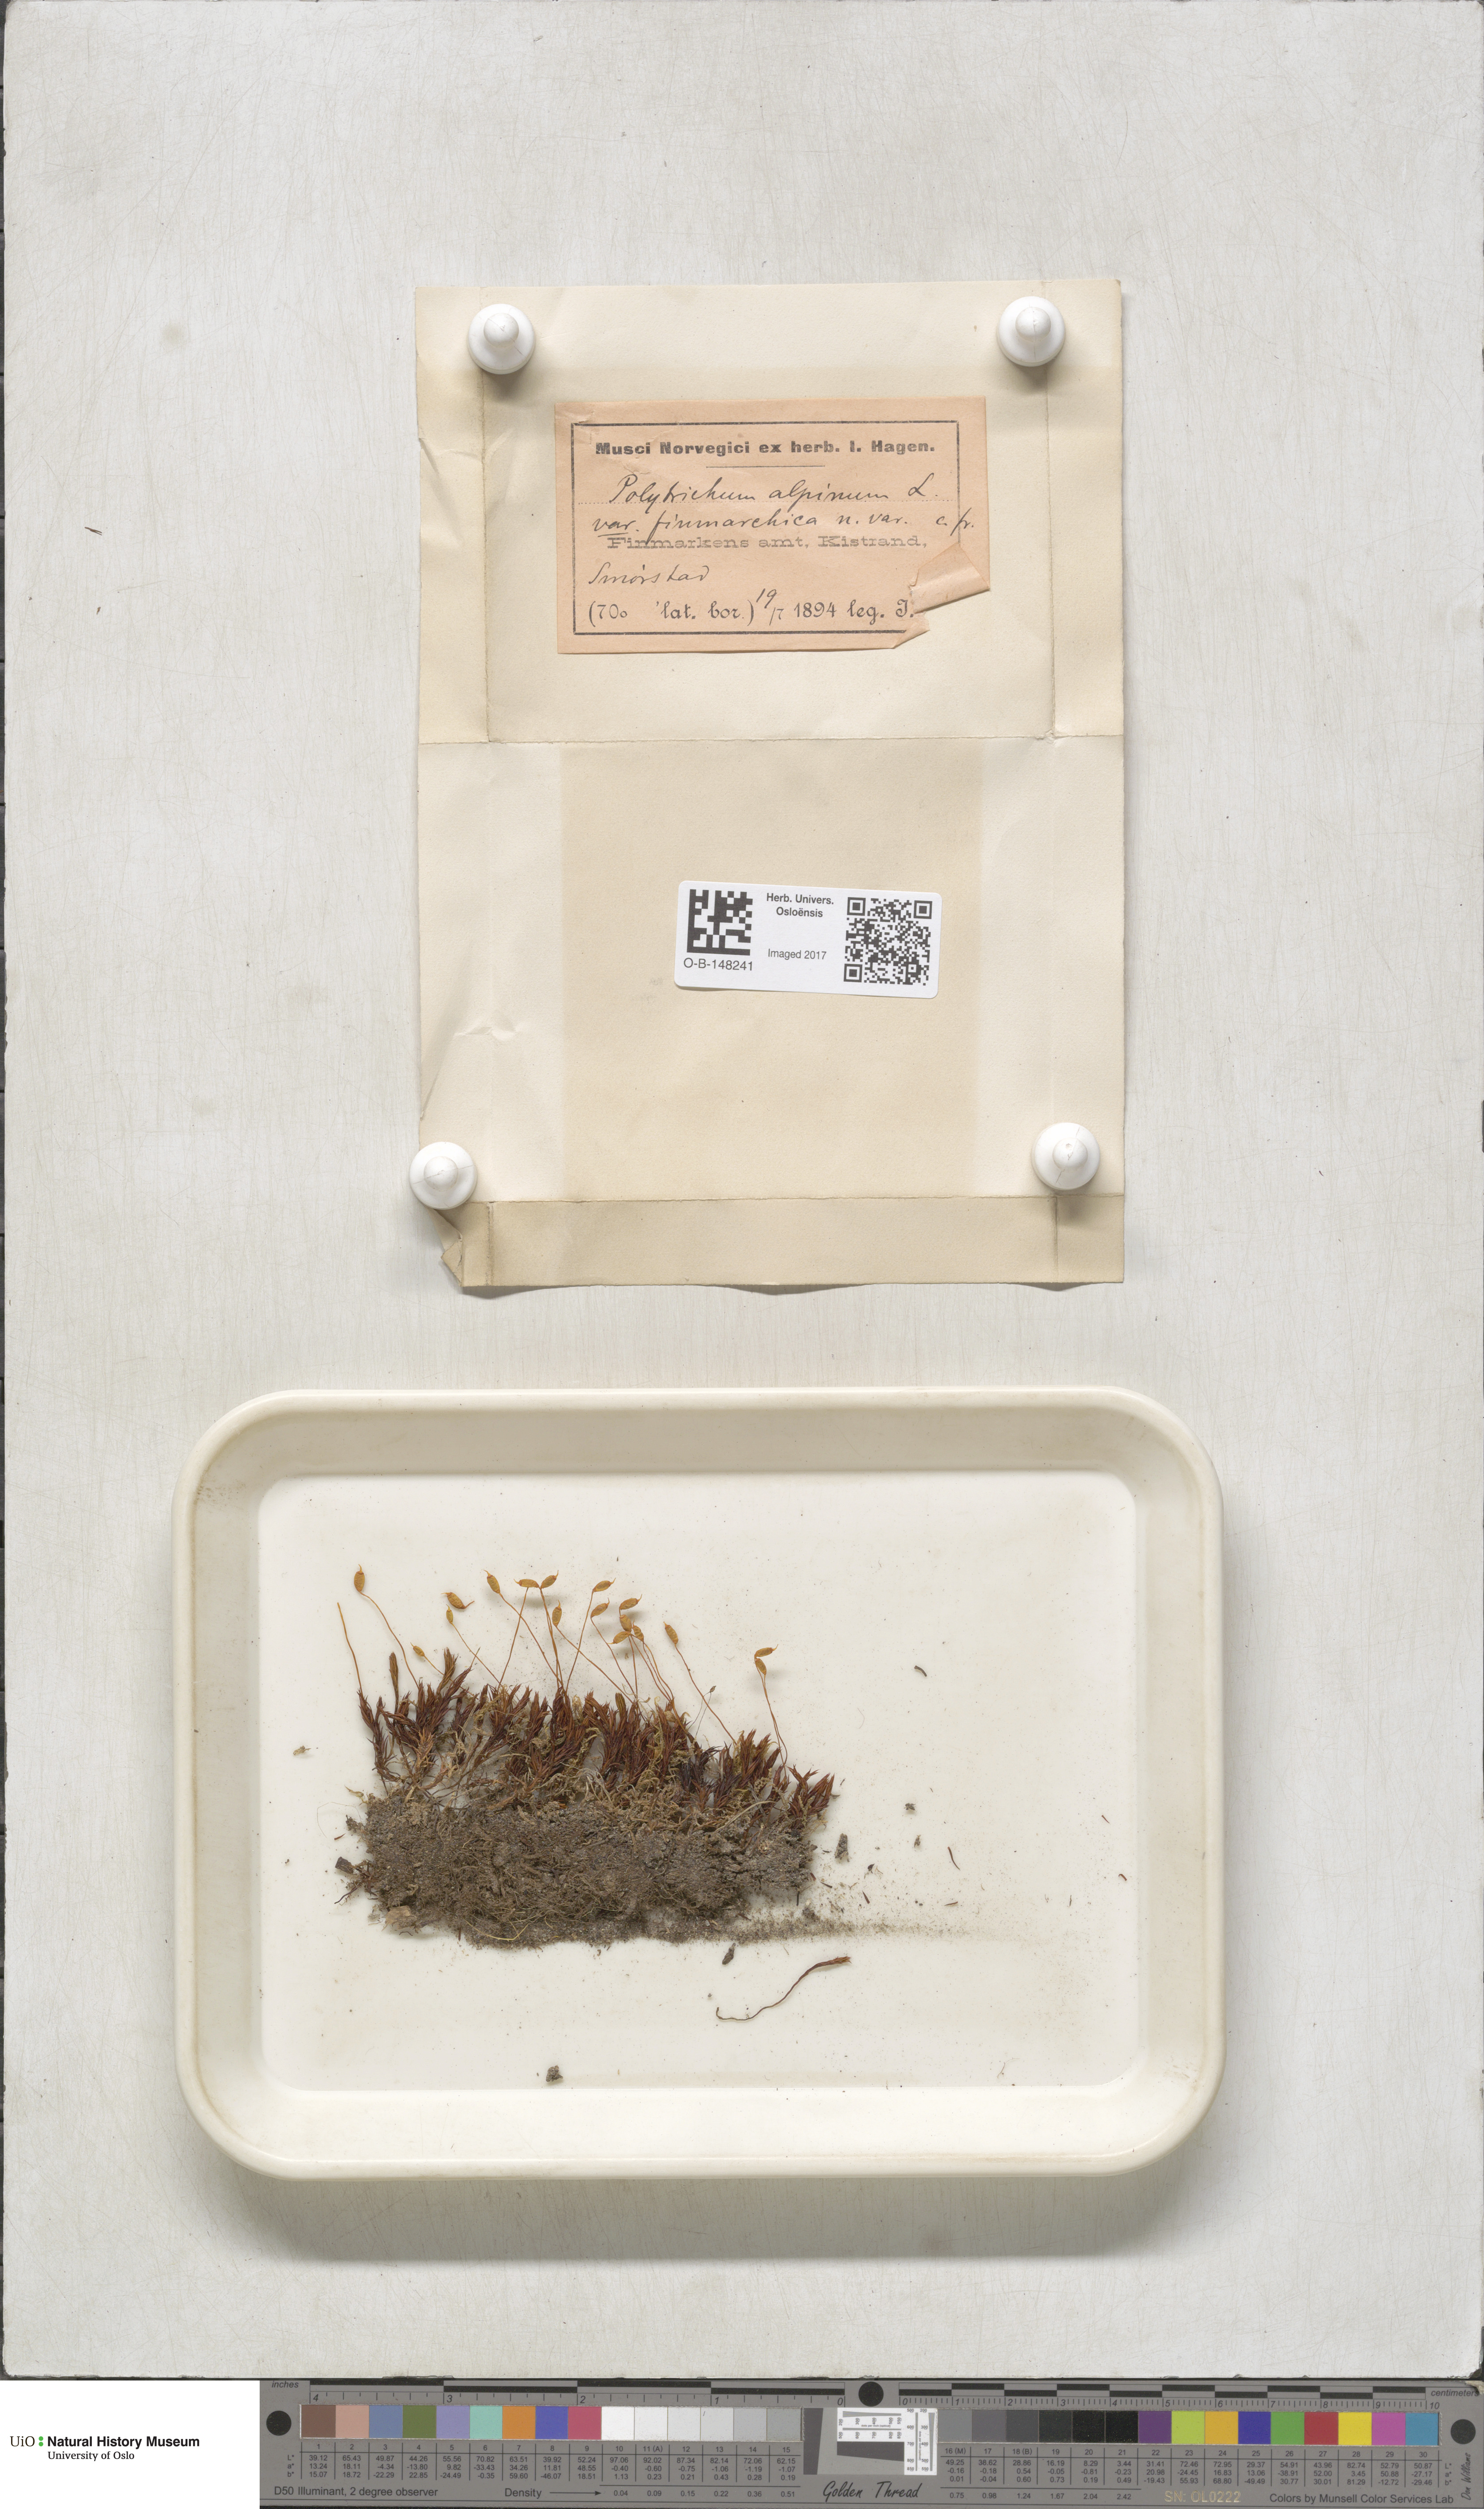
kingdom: Plantae
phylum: Bryophyta
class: Polytrichopsida
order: Polytrichales
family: Polytrichaceae
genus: Polytrichastrum
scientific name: Polytrichastrum alpinum
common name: Alpine haircap
